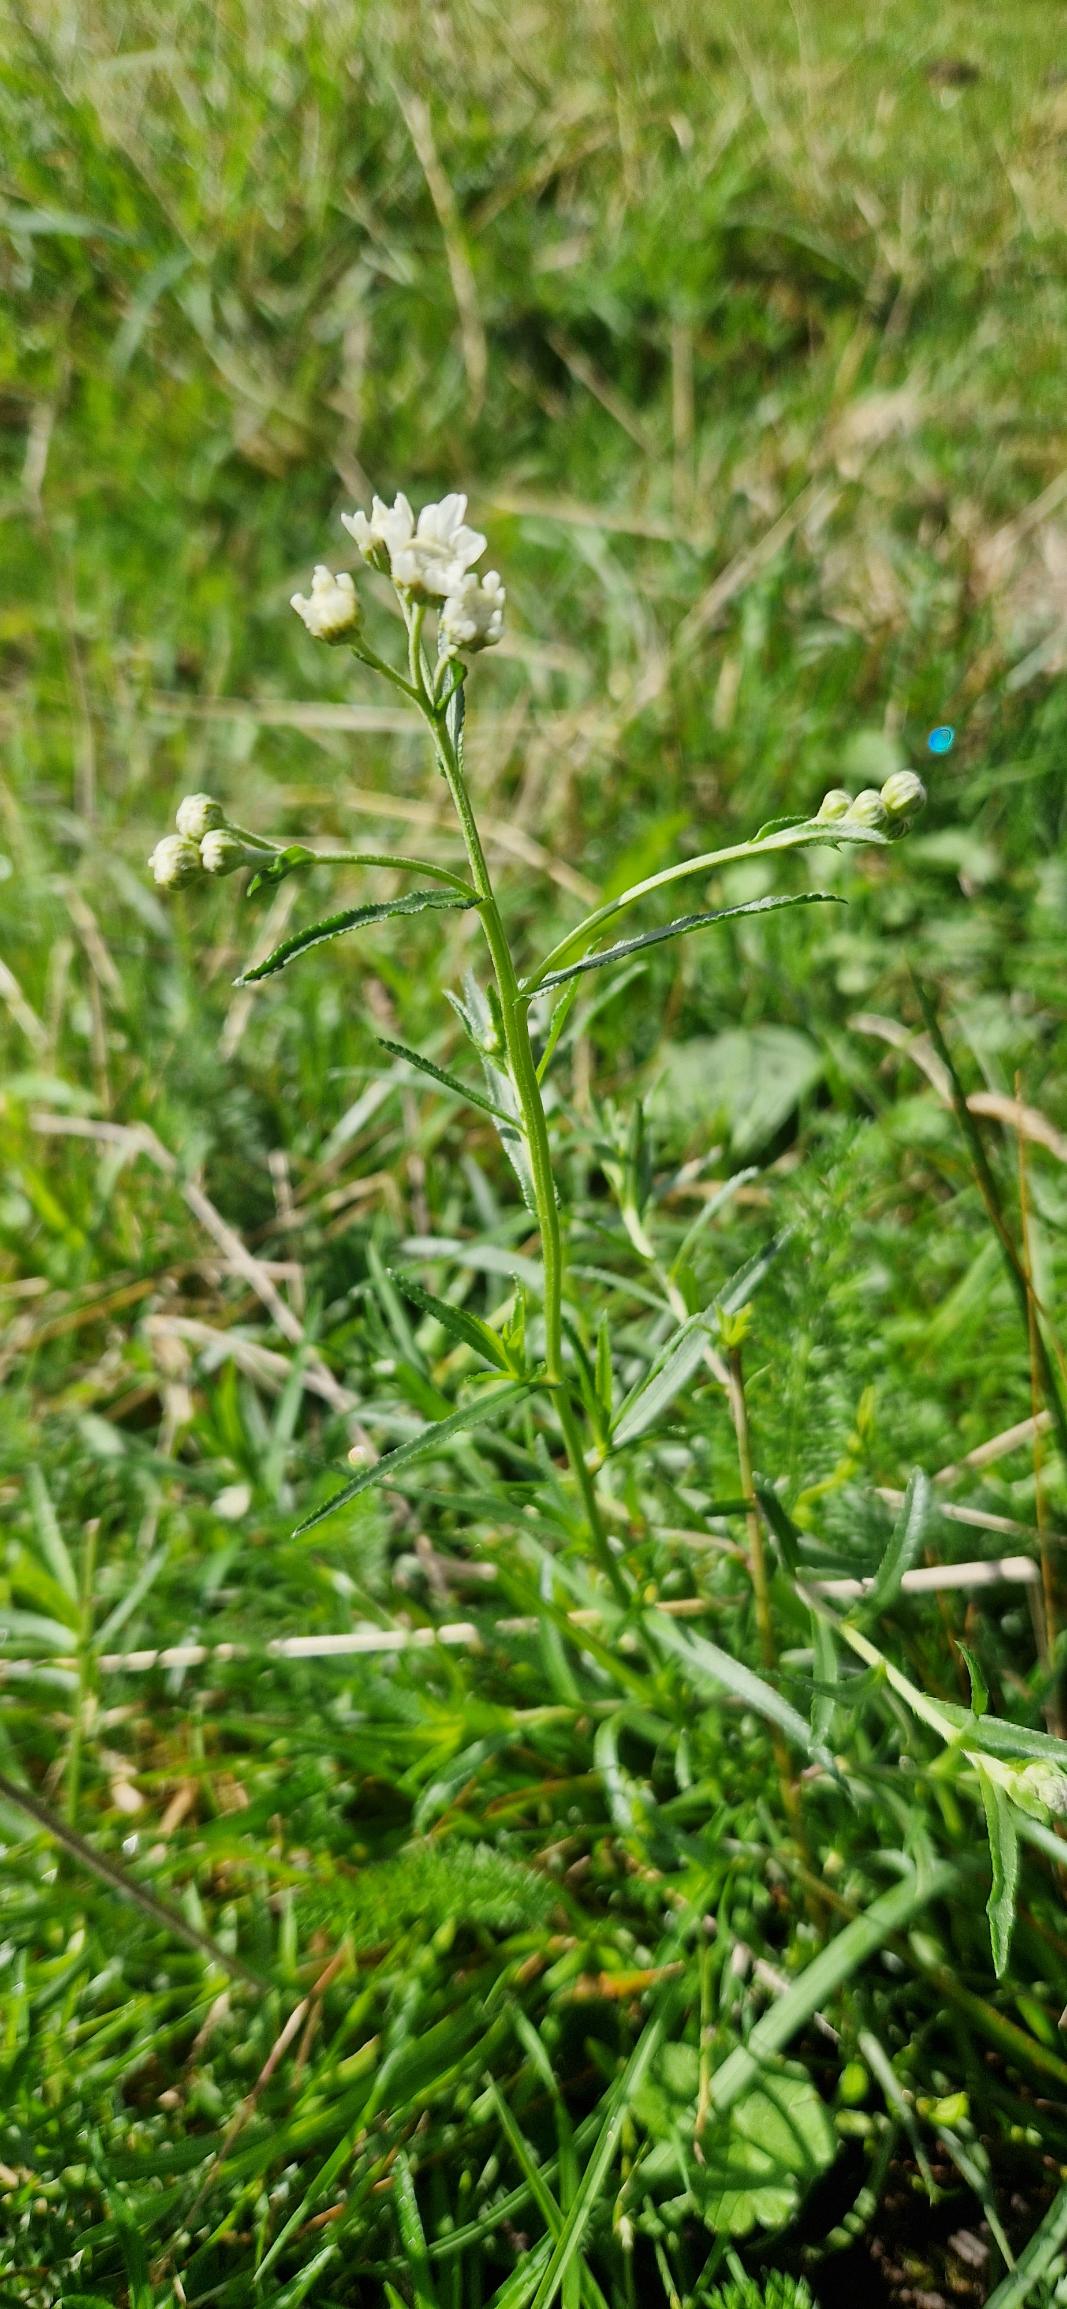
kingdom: Plantae
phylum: Tracheophyta
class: Magnoliopsida
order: Asterales
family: Asteraceae
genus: Achillea
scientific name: Achillea ptarmica
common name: Nyse-røllike
